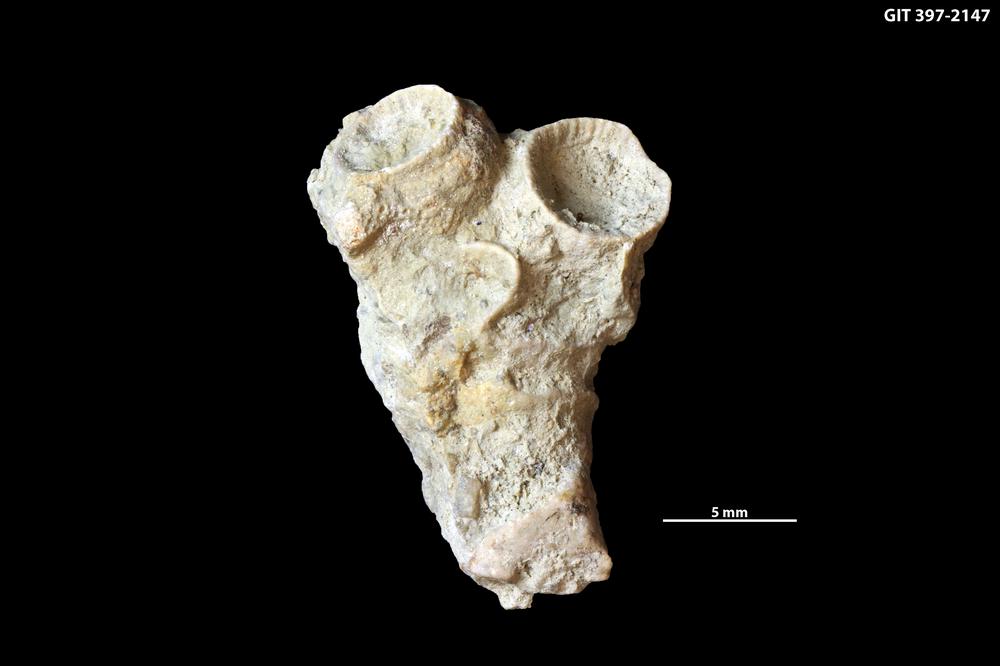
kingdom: Animalia
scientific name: Animalia
